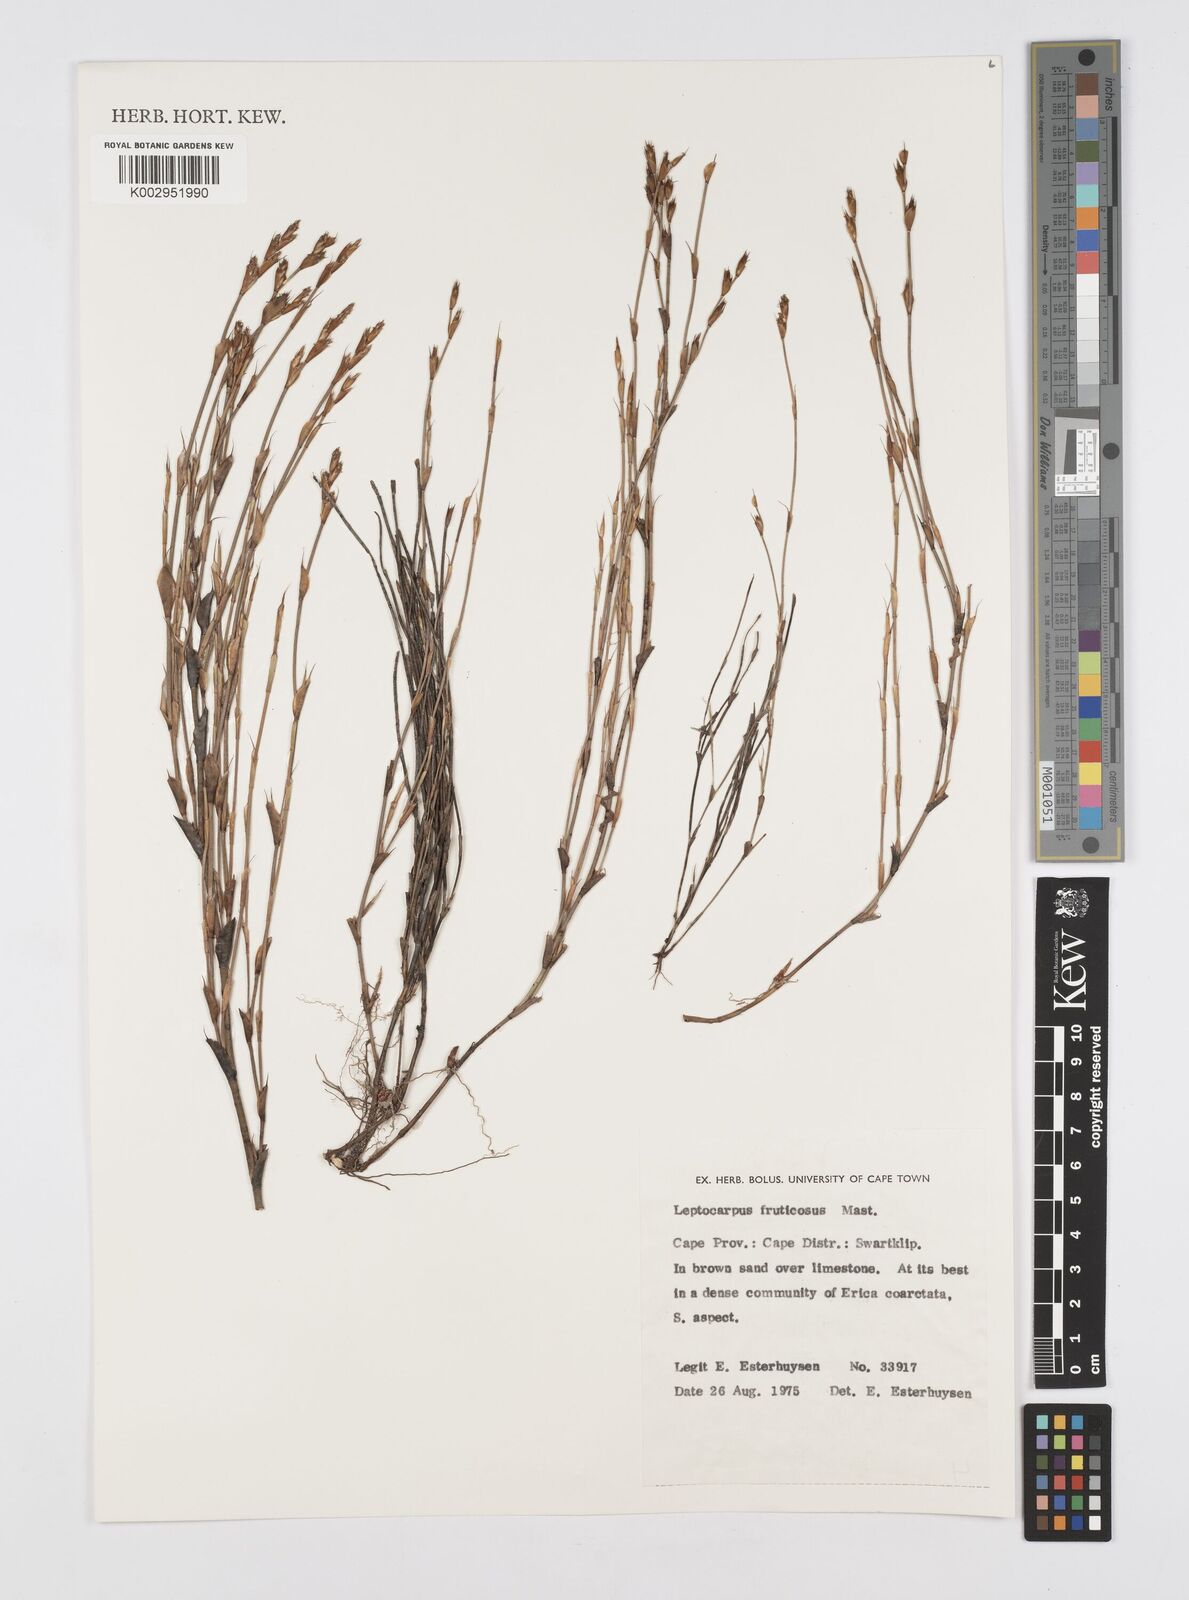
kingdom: Plantae
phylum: Tracheophyta
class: Liliopsida
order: Poales
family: Restionaceae
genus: Rhodocoma
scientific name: Rhodocoma fruticosa
